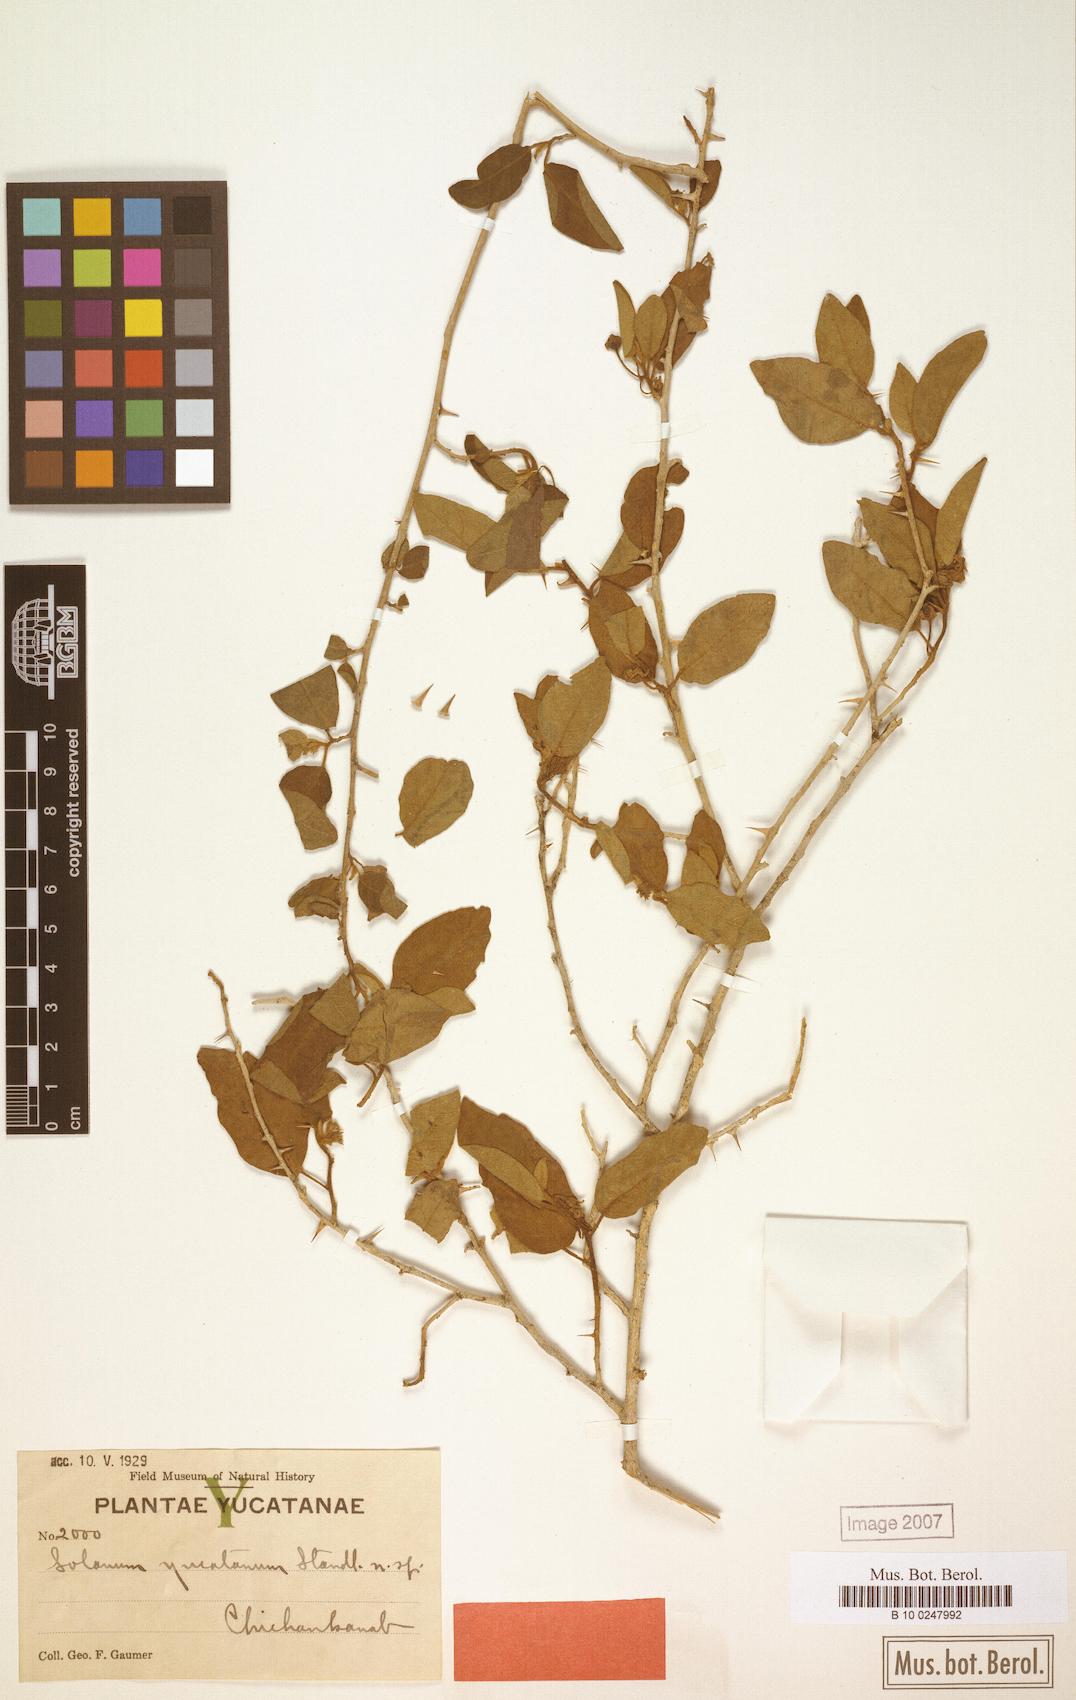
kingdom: Plantae
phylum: Tracheophyta
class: Magnoliopsida
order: Solanales
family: Solanaceae
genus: Solanum
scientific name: Solanum dasyanthum
